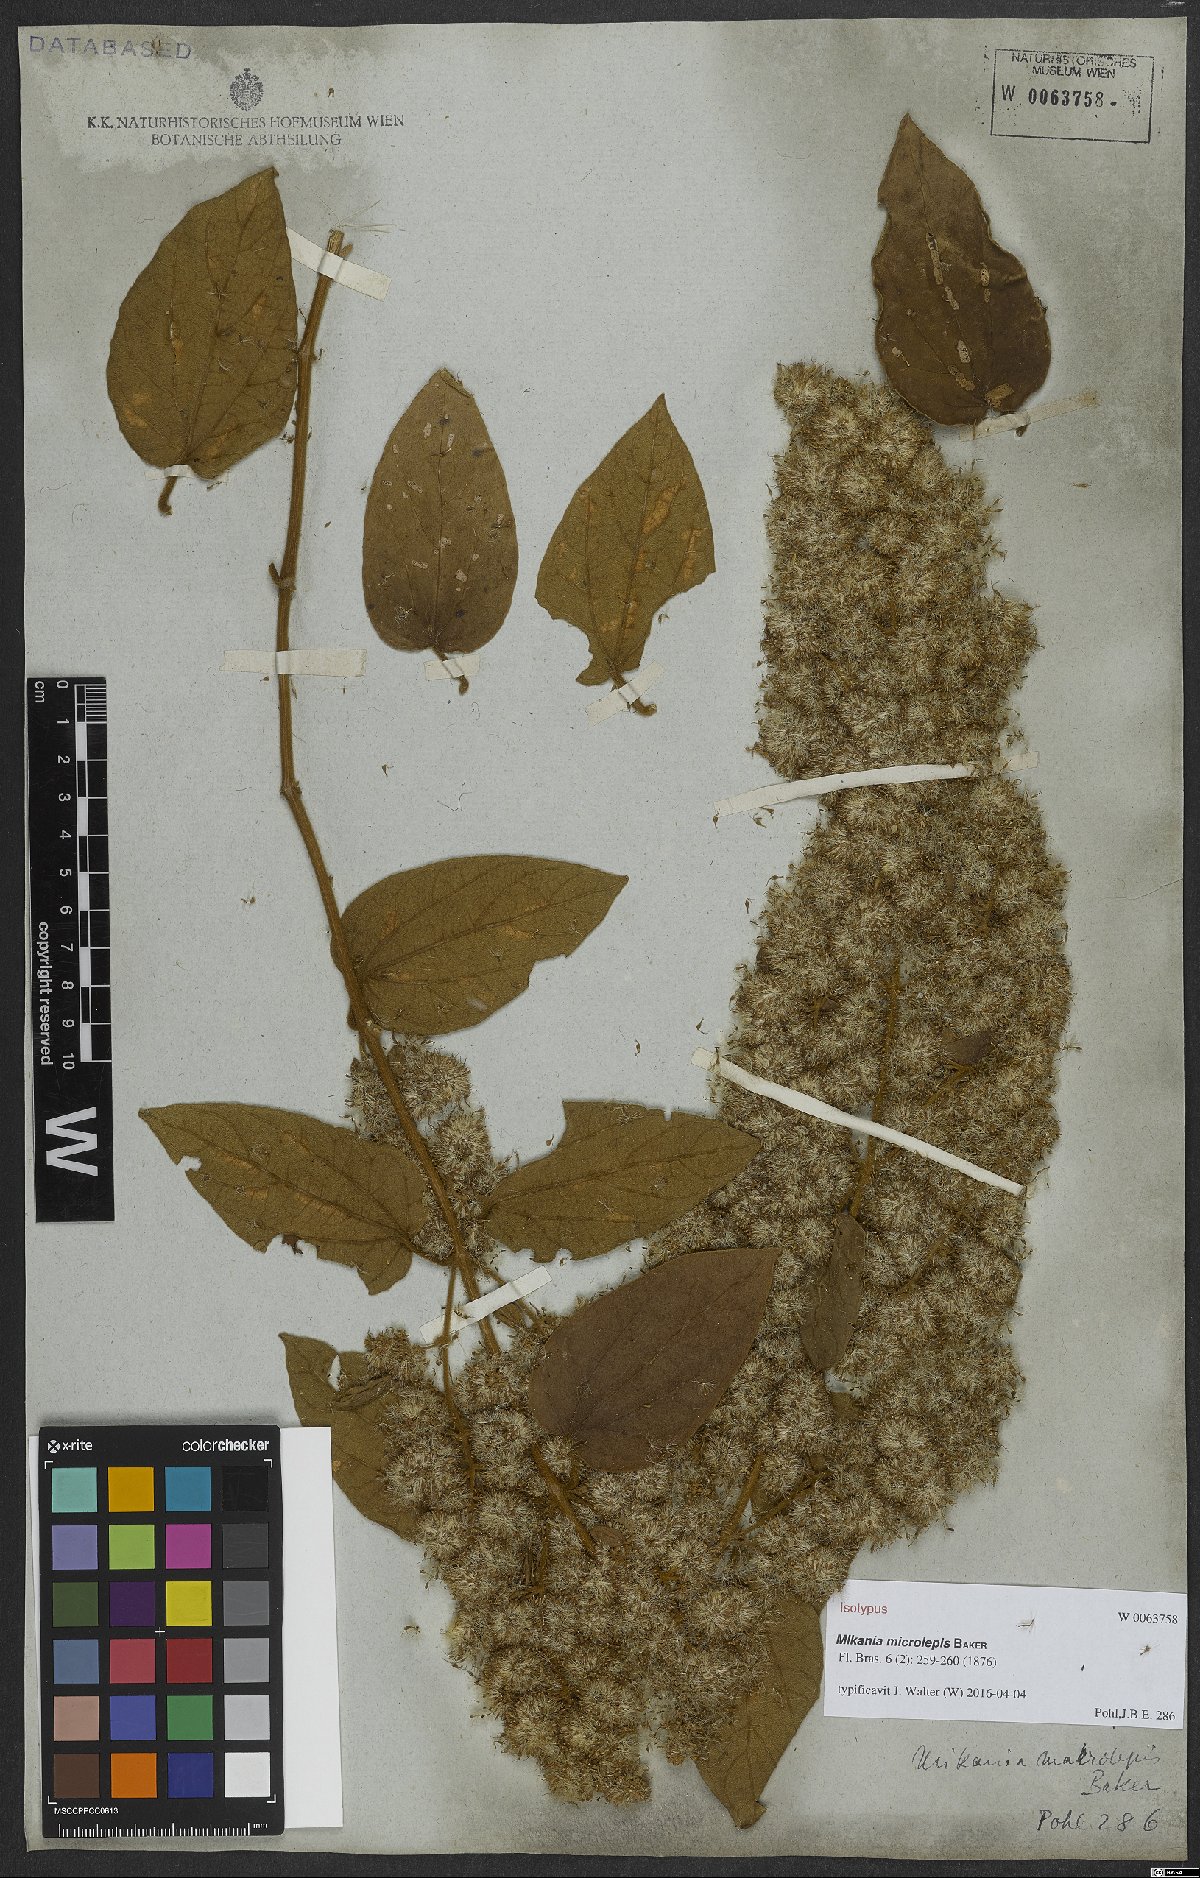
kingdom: Plantae
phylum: Tracheophyta
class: Magnoliopsida
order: Asterales
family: Asteraceae
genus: Mikania
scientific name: Mikania microlepis
